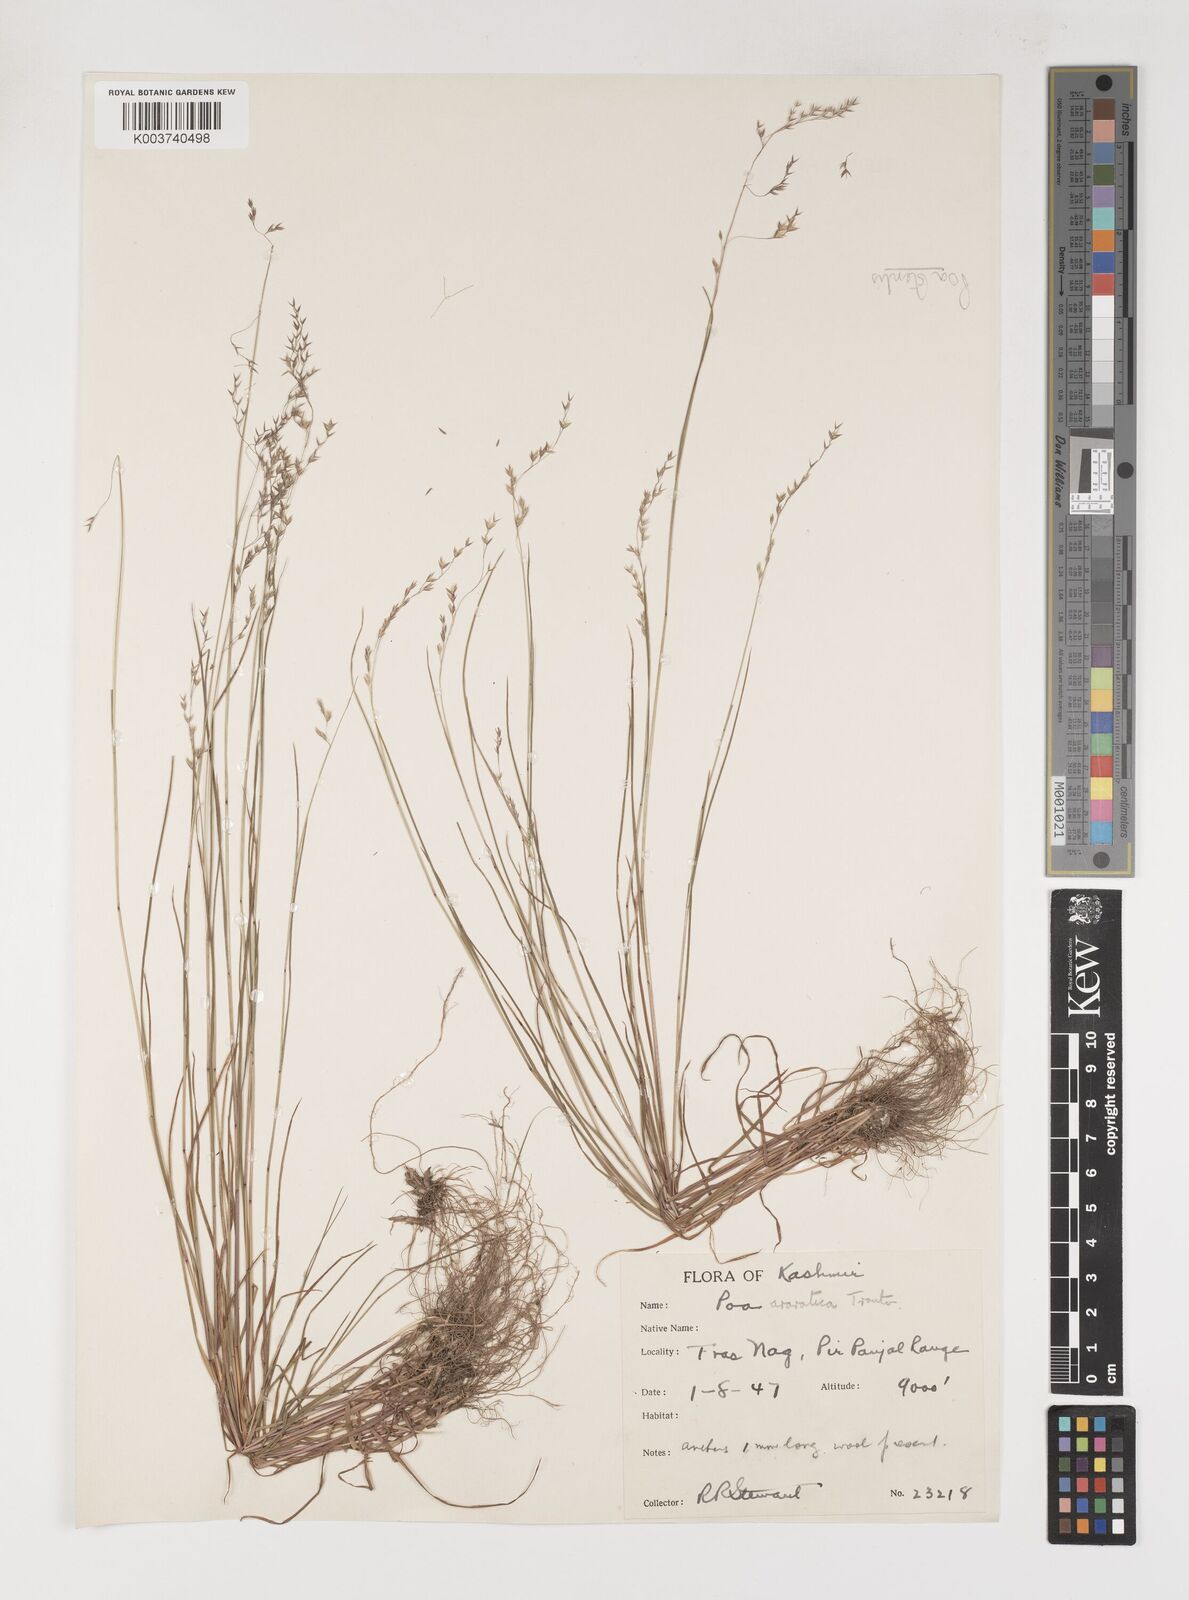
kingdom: Plantae
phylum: Tracheophyta
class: Liliopsida
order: Poales
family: Poaceae
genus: Poa
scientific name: Poa sterilis
